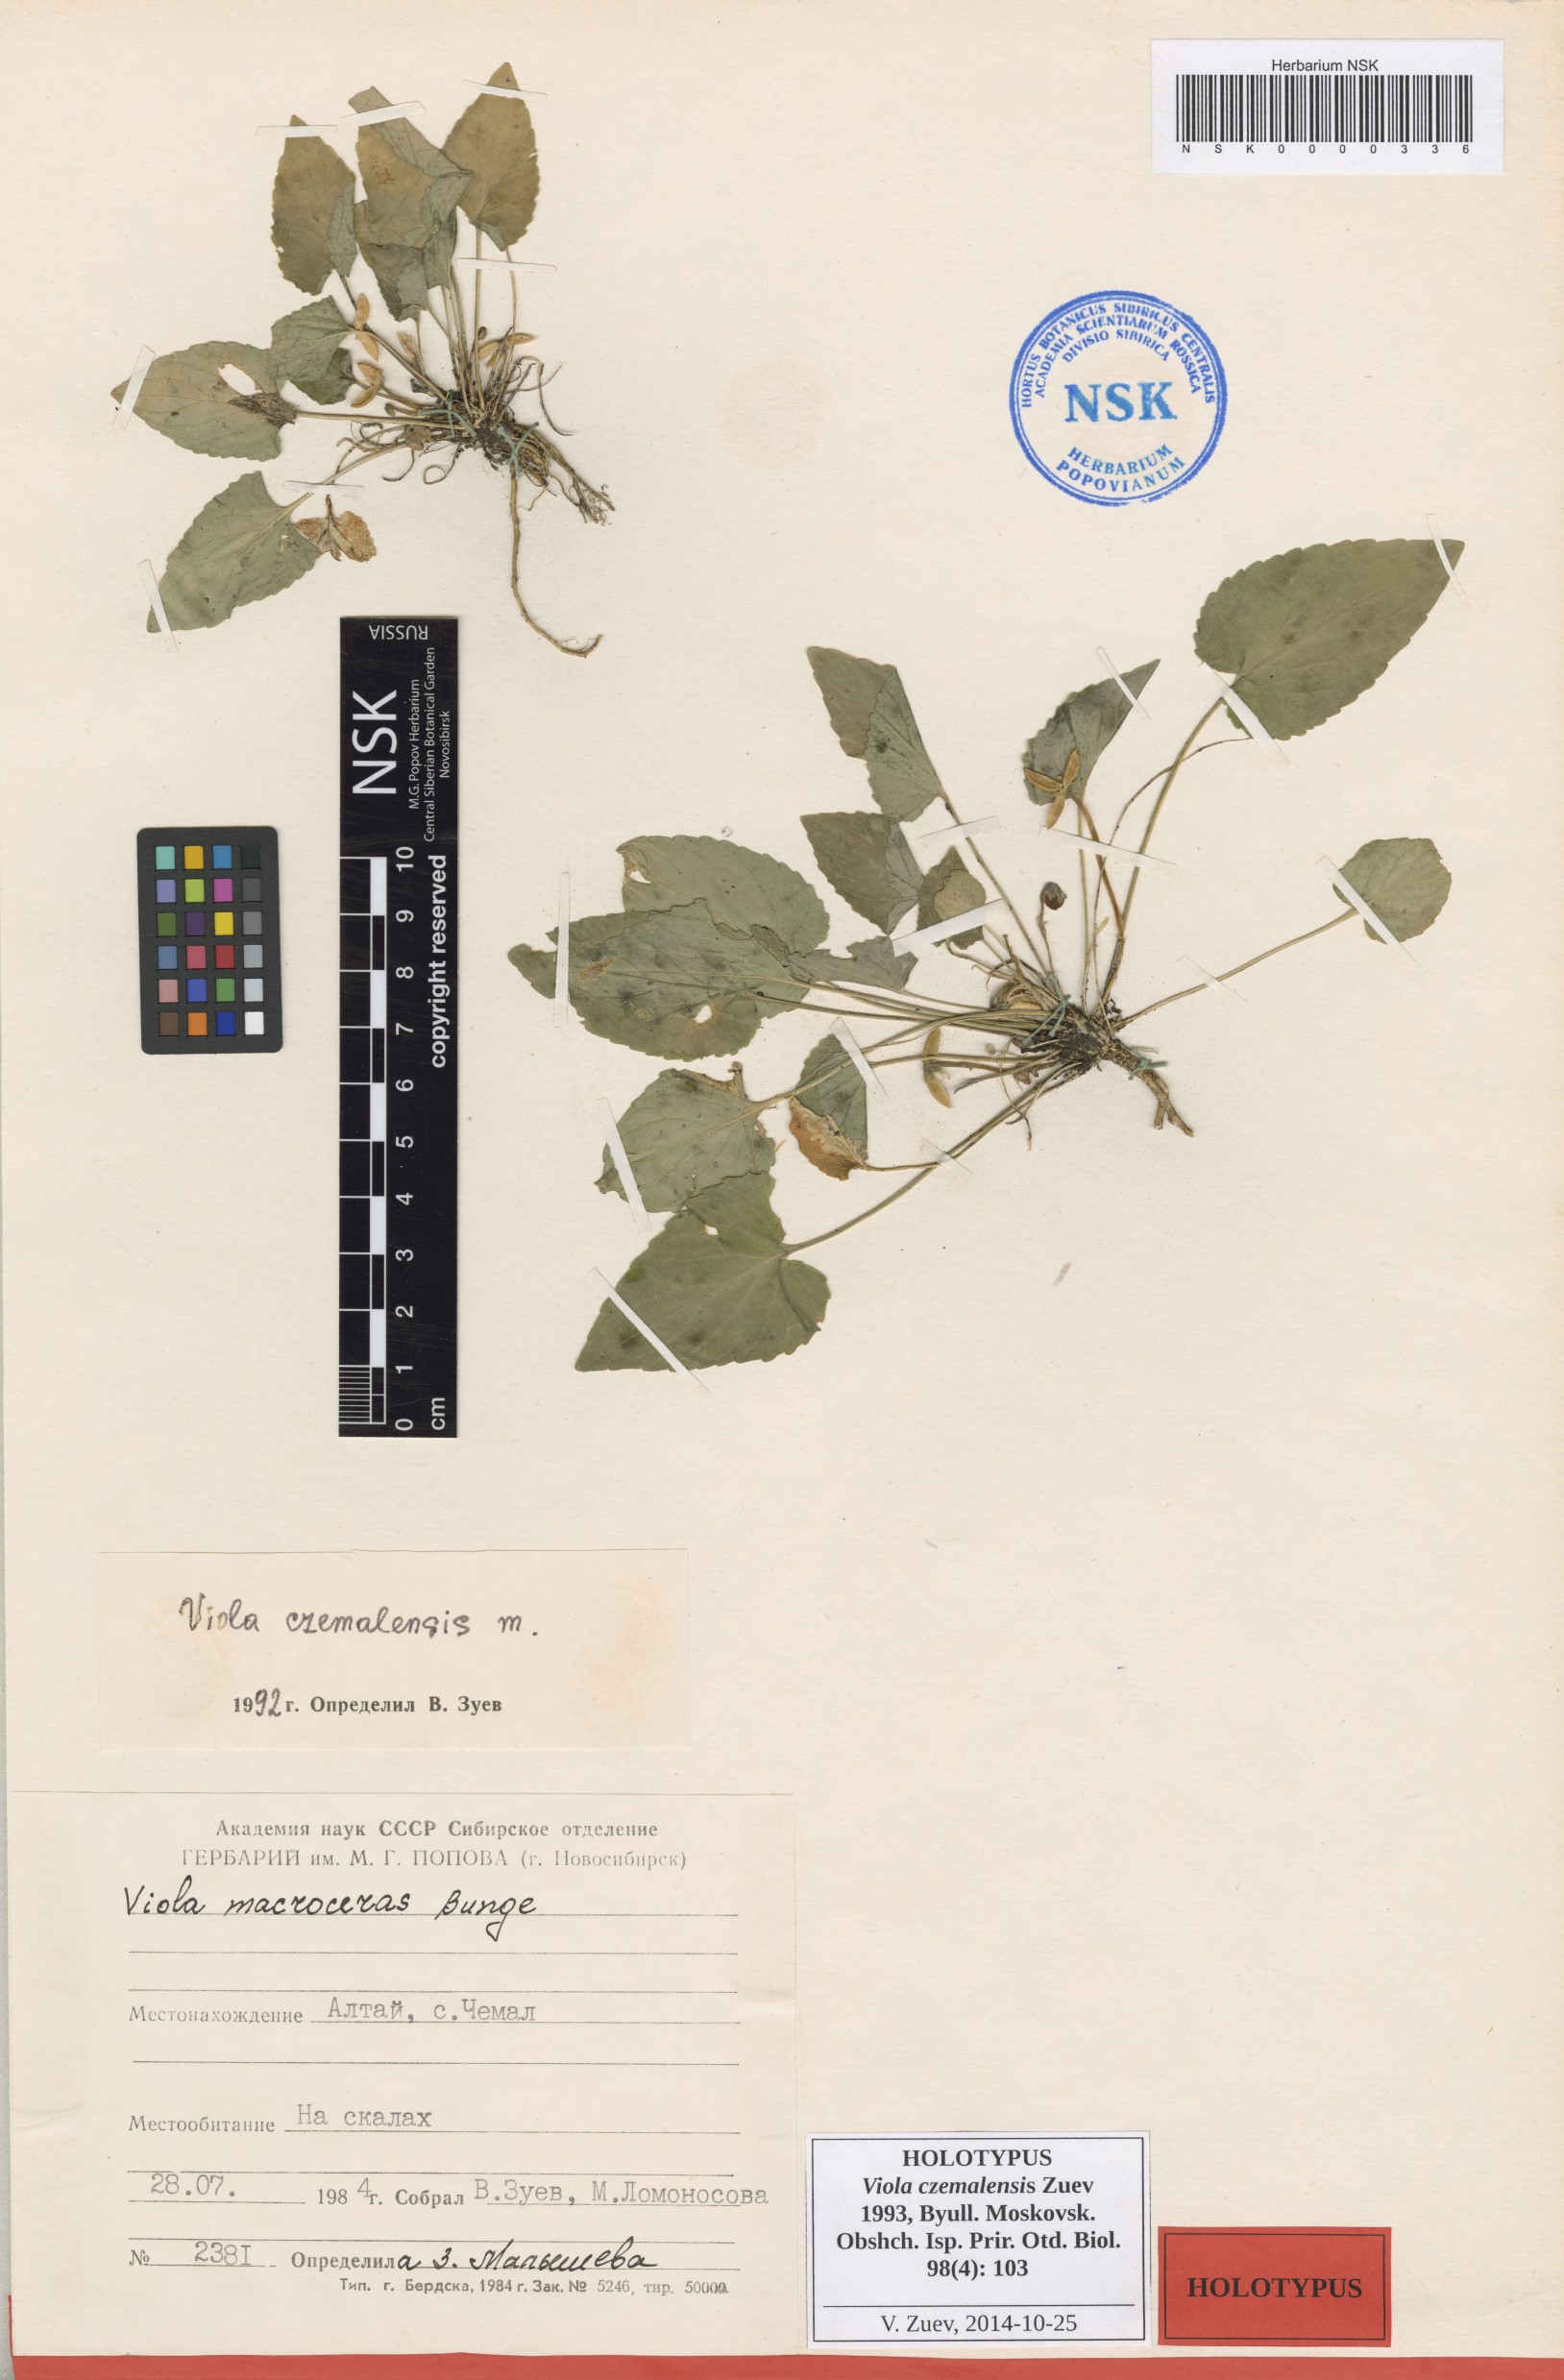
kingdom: Plantae
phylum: Tracheophyta
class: Magnoliopsida
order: Malpighiales
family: Violaceae
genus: Viola
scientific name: Viola macroceras
